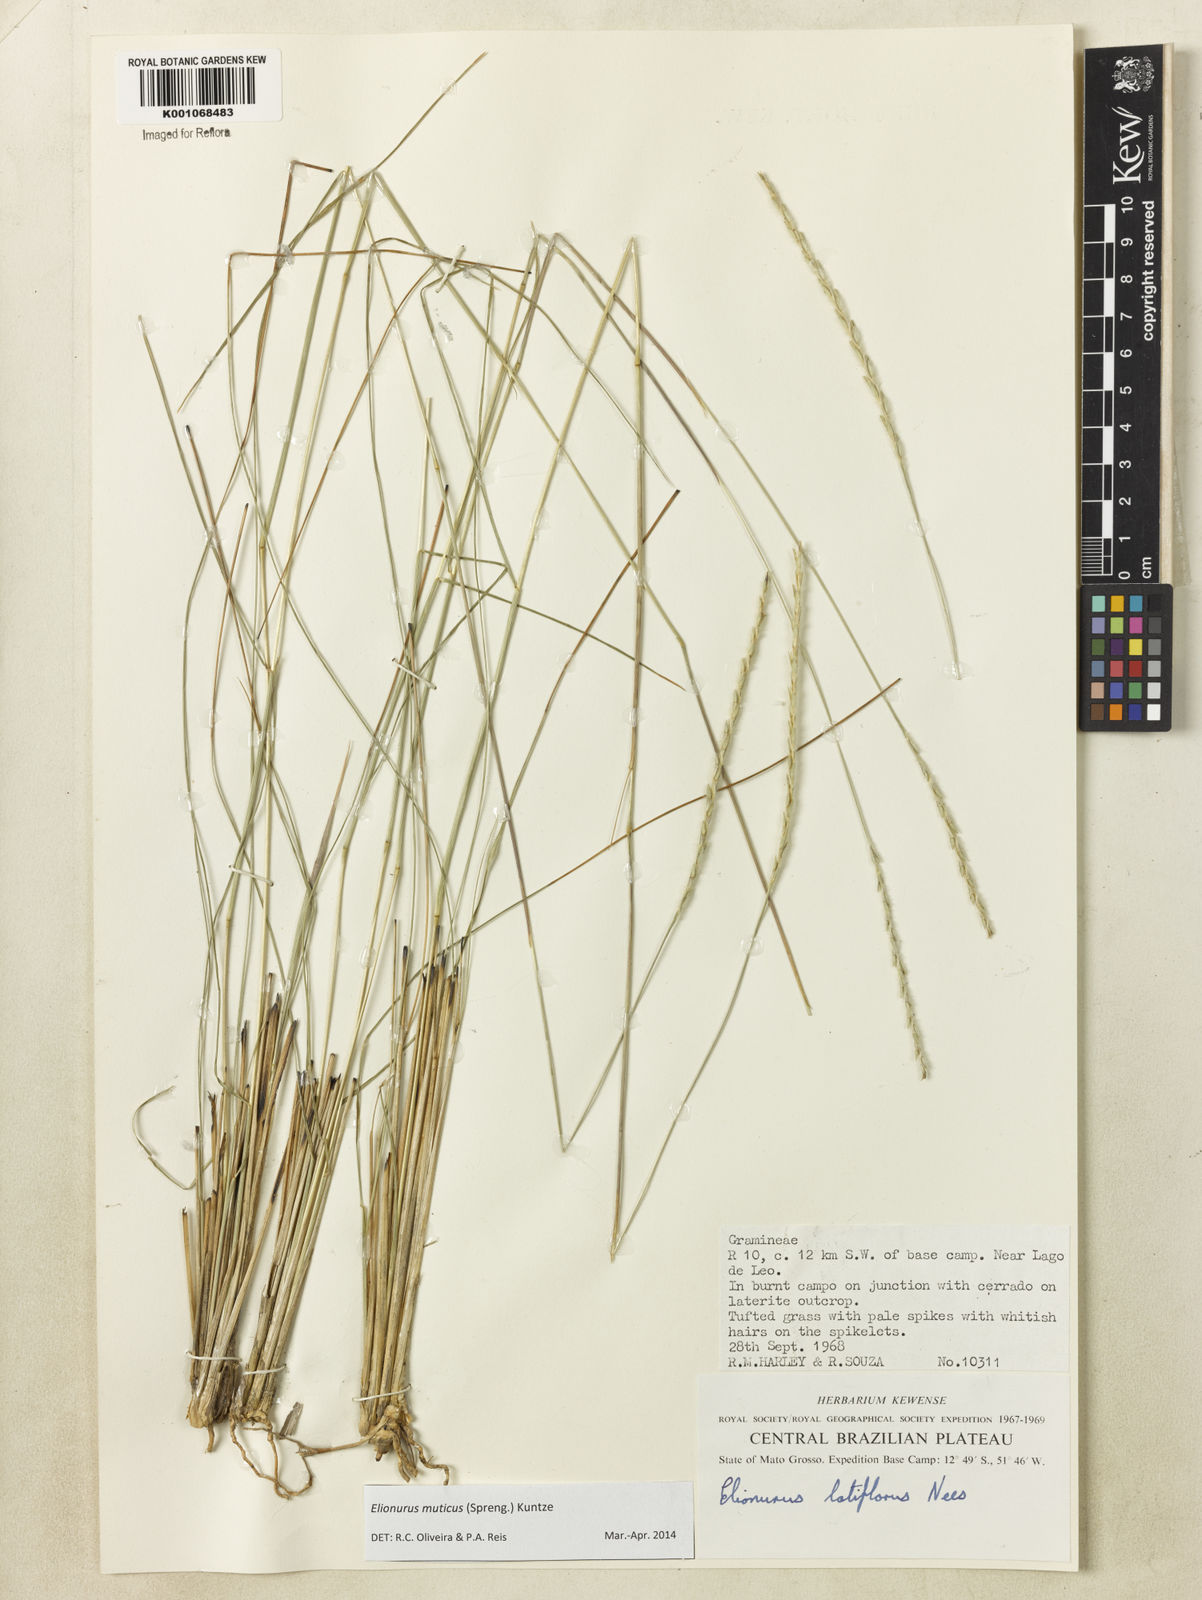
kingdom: Plantae
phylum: Tracheophyta
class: Liliopsida
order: Poales
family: Poaceae
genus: Elionurus
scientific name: Elionurus muticus
